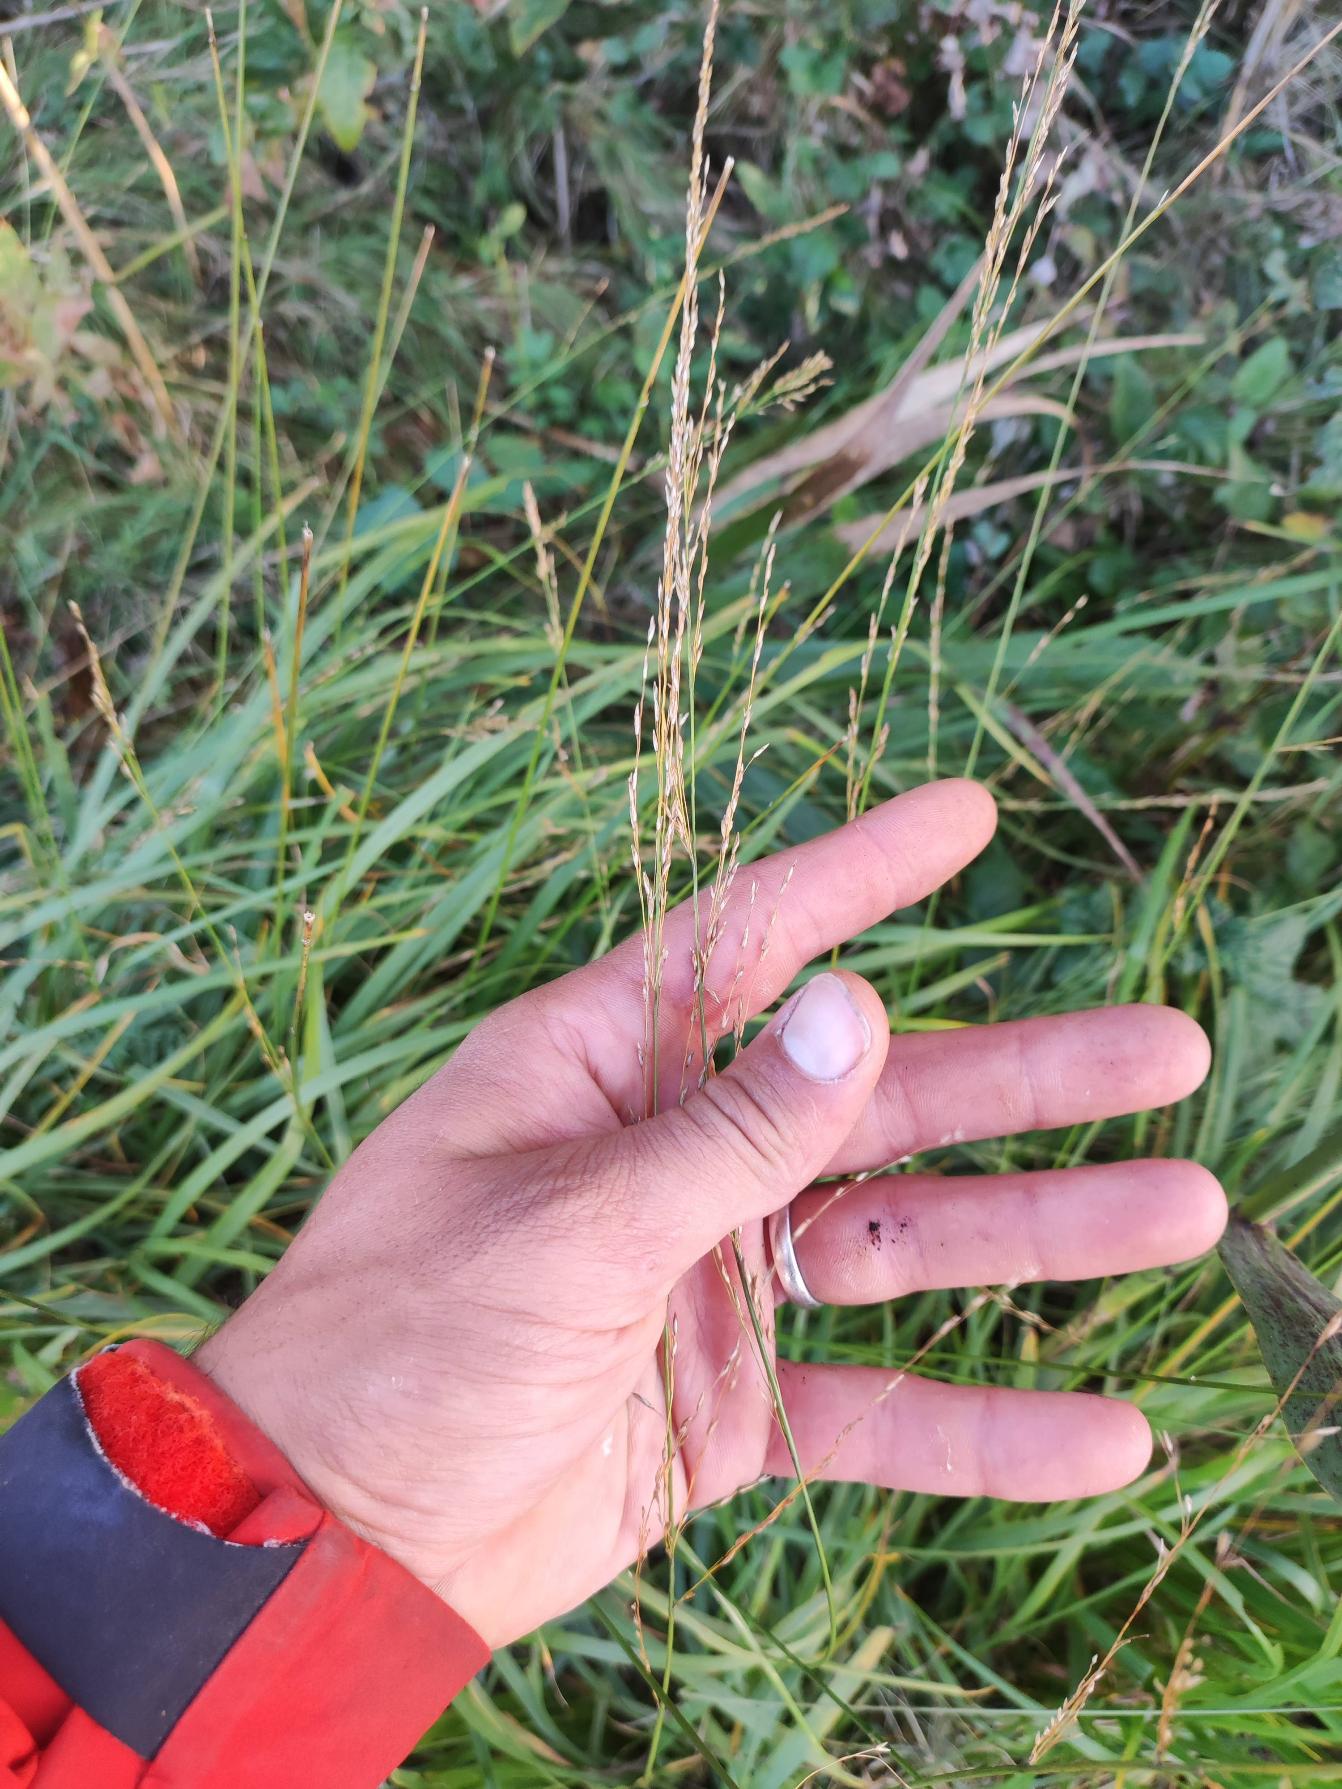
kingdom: Plantae
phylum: Tracheophyta
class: Liliopsida
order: Poales
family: Poaceae
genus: Molinia
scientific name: Molinia caerulea
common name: Blåtop
